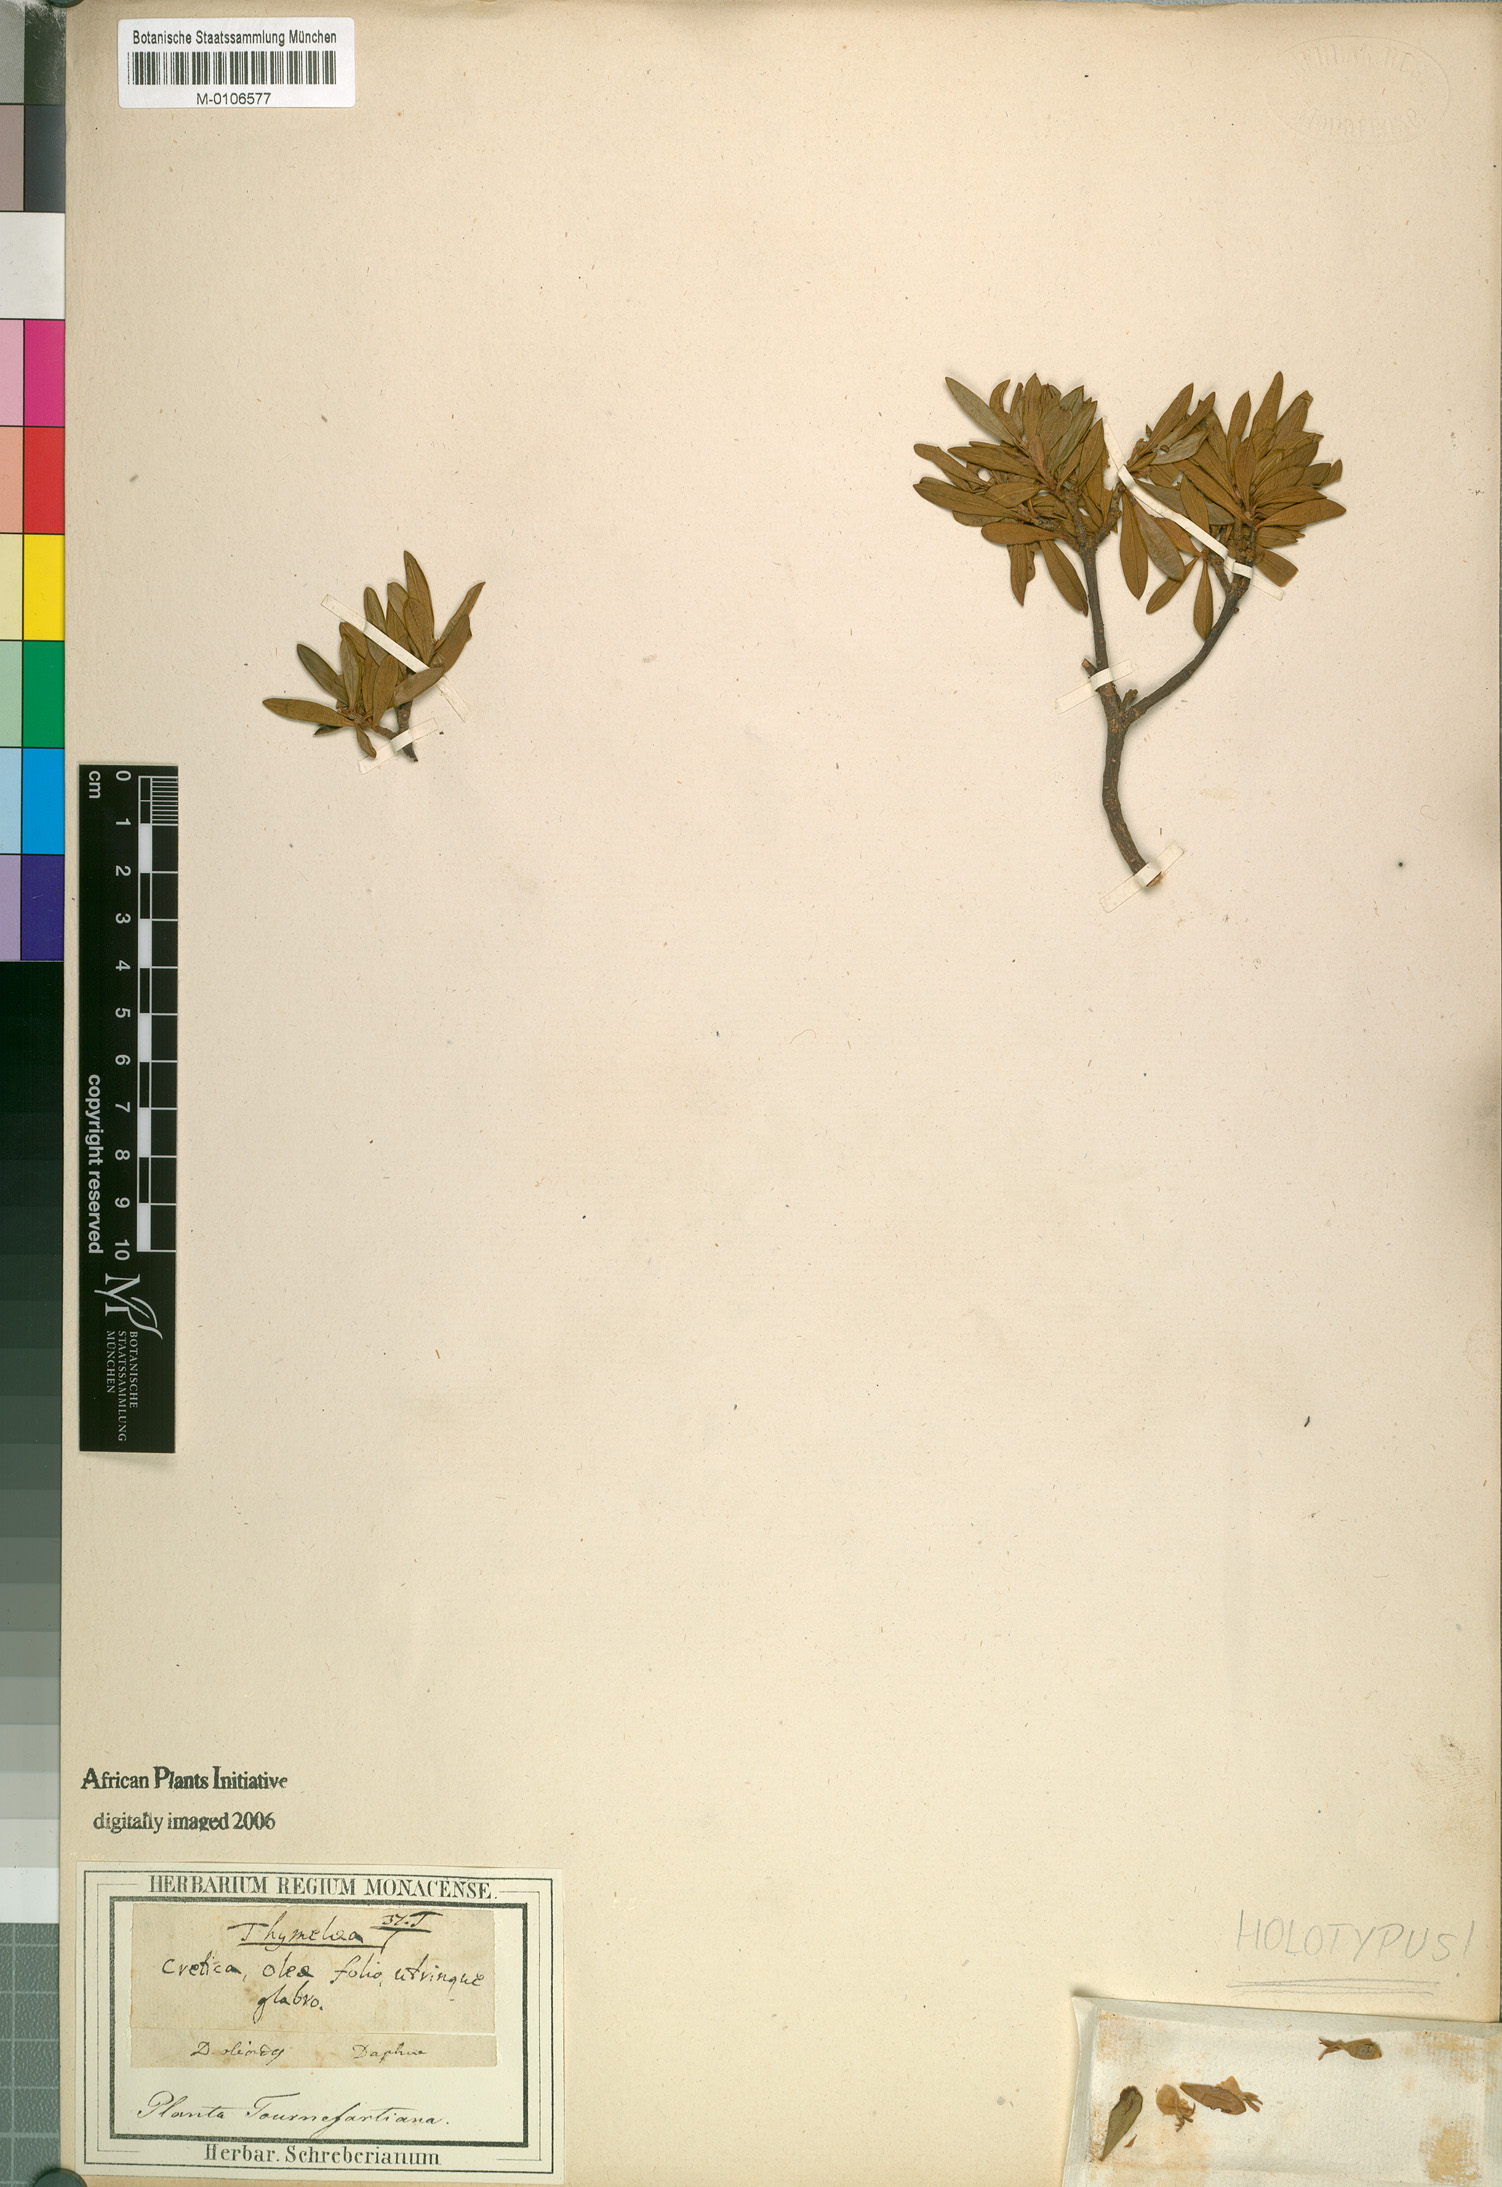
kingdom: Plantae
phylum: Tracheophyta
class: Magnoliopsida
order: Malvales
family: Thymelaeaceae
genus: Daphne
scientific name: Daphne oleoides
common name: Spurge-olive
